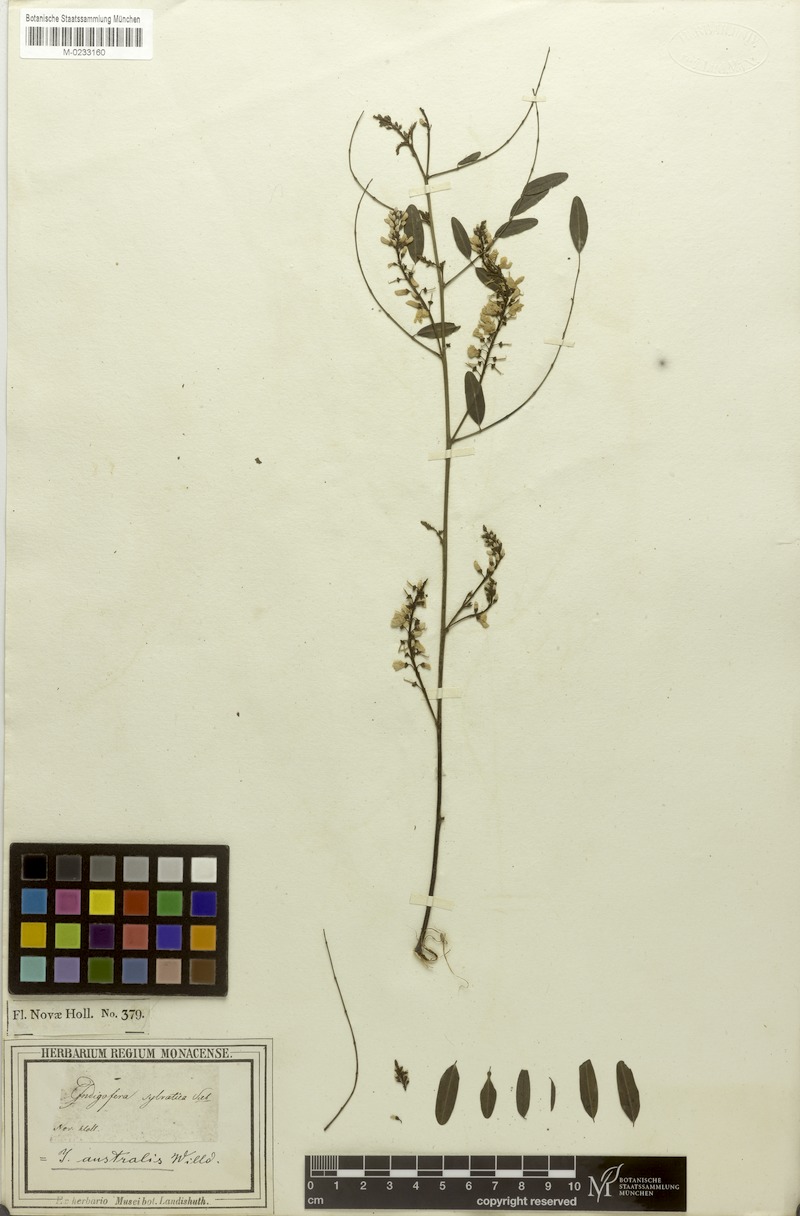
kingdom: Plantae
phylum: Tracheophyta
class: Magnoliopsida
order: Fabales
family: Fabaceae
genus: Indigofera
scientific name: Indigofera australis
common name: Australian indigo
